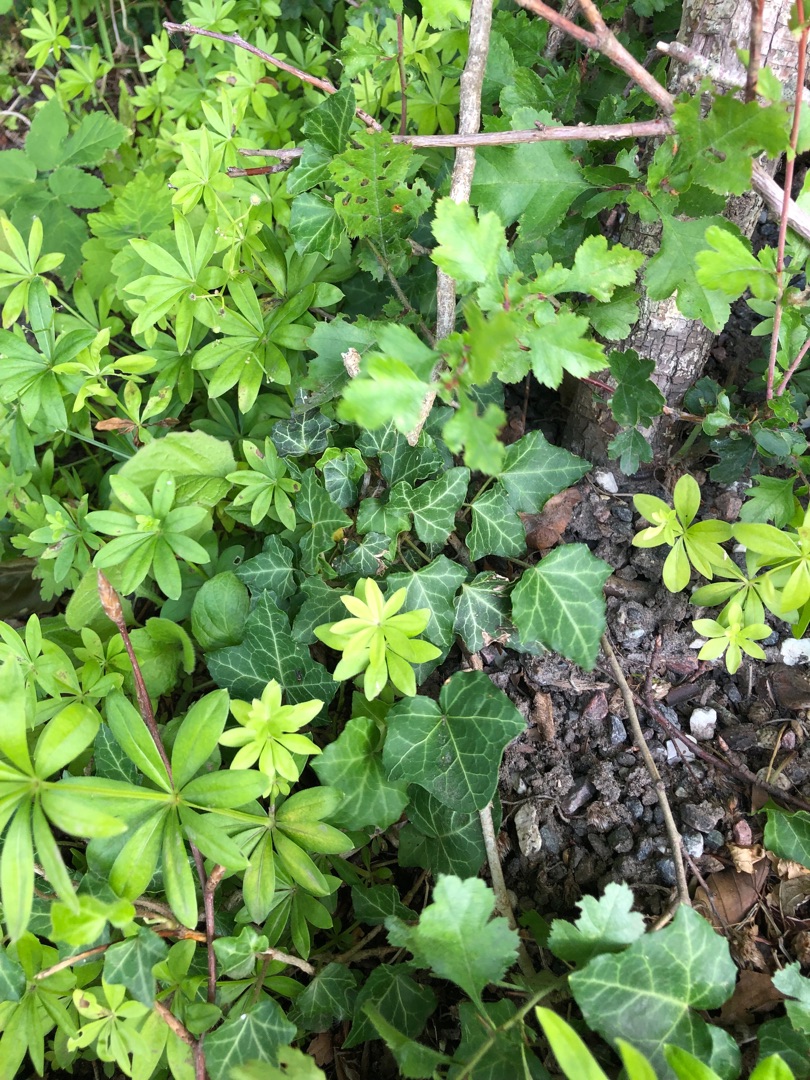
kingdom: Plantae
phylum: Tracheophyta
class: Magnoliopsida
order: Apiales
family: Araliaceae
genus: Hedera
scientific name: Hedera helix
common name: Vedbend
